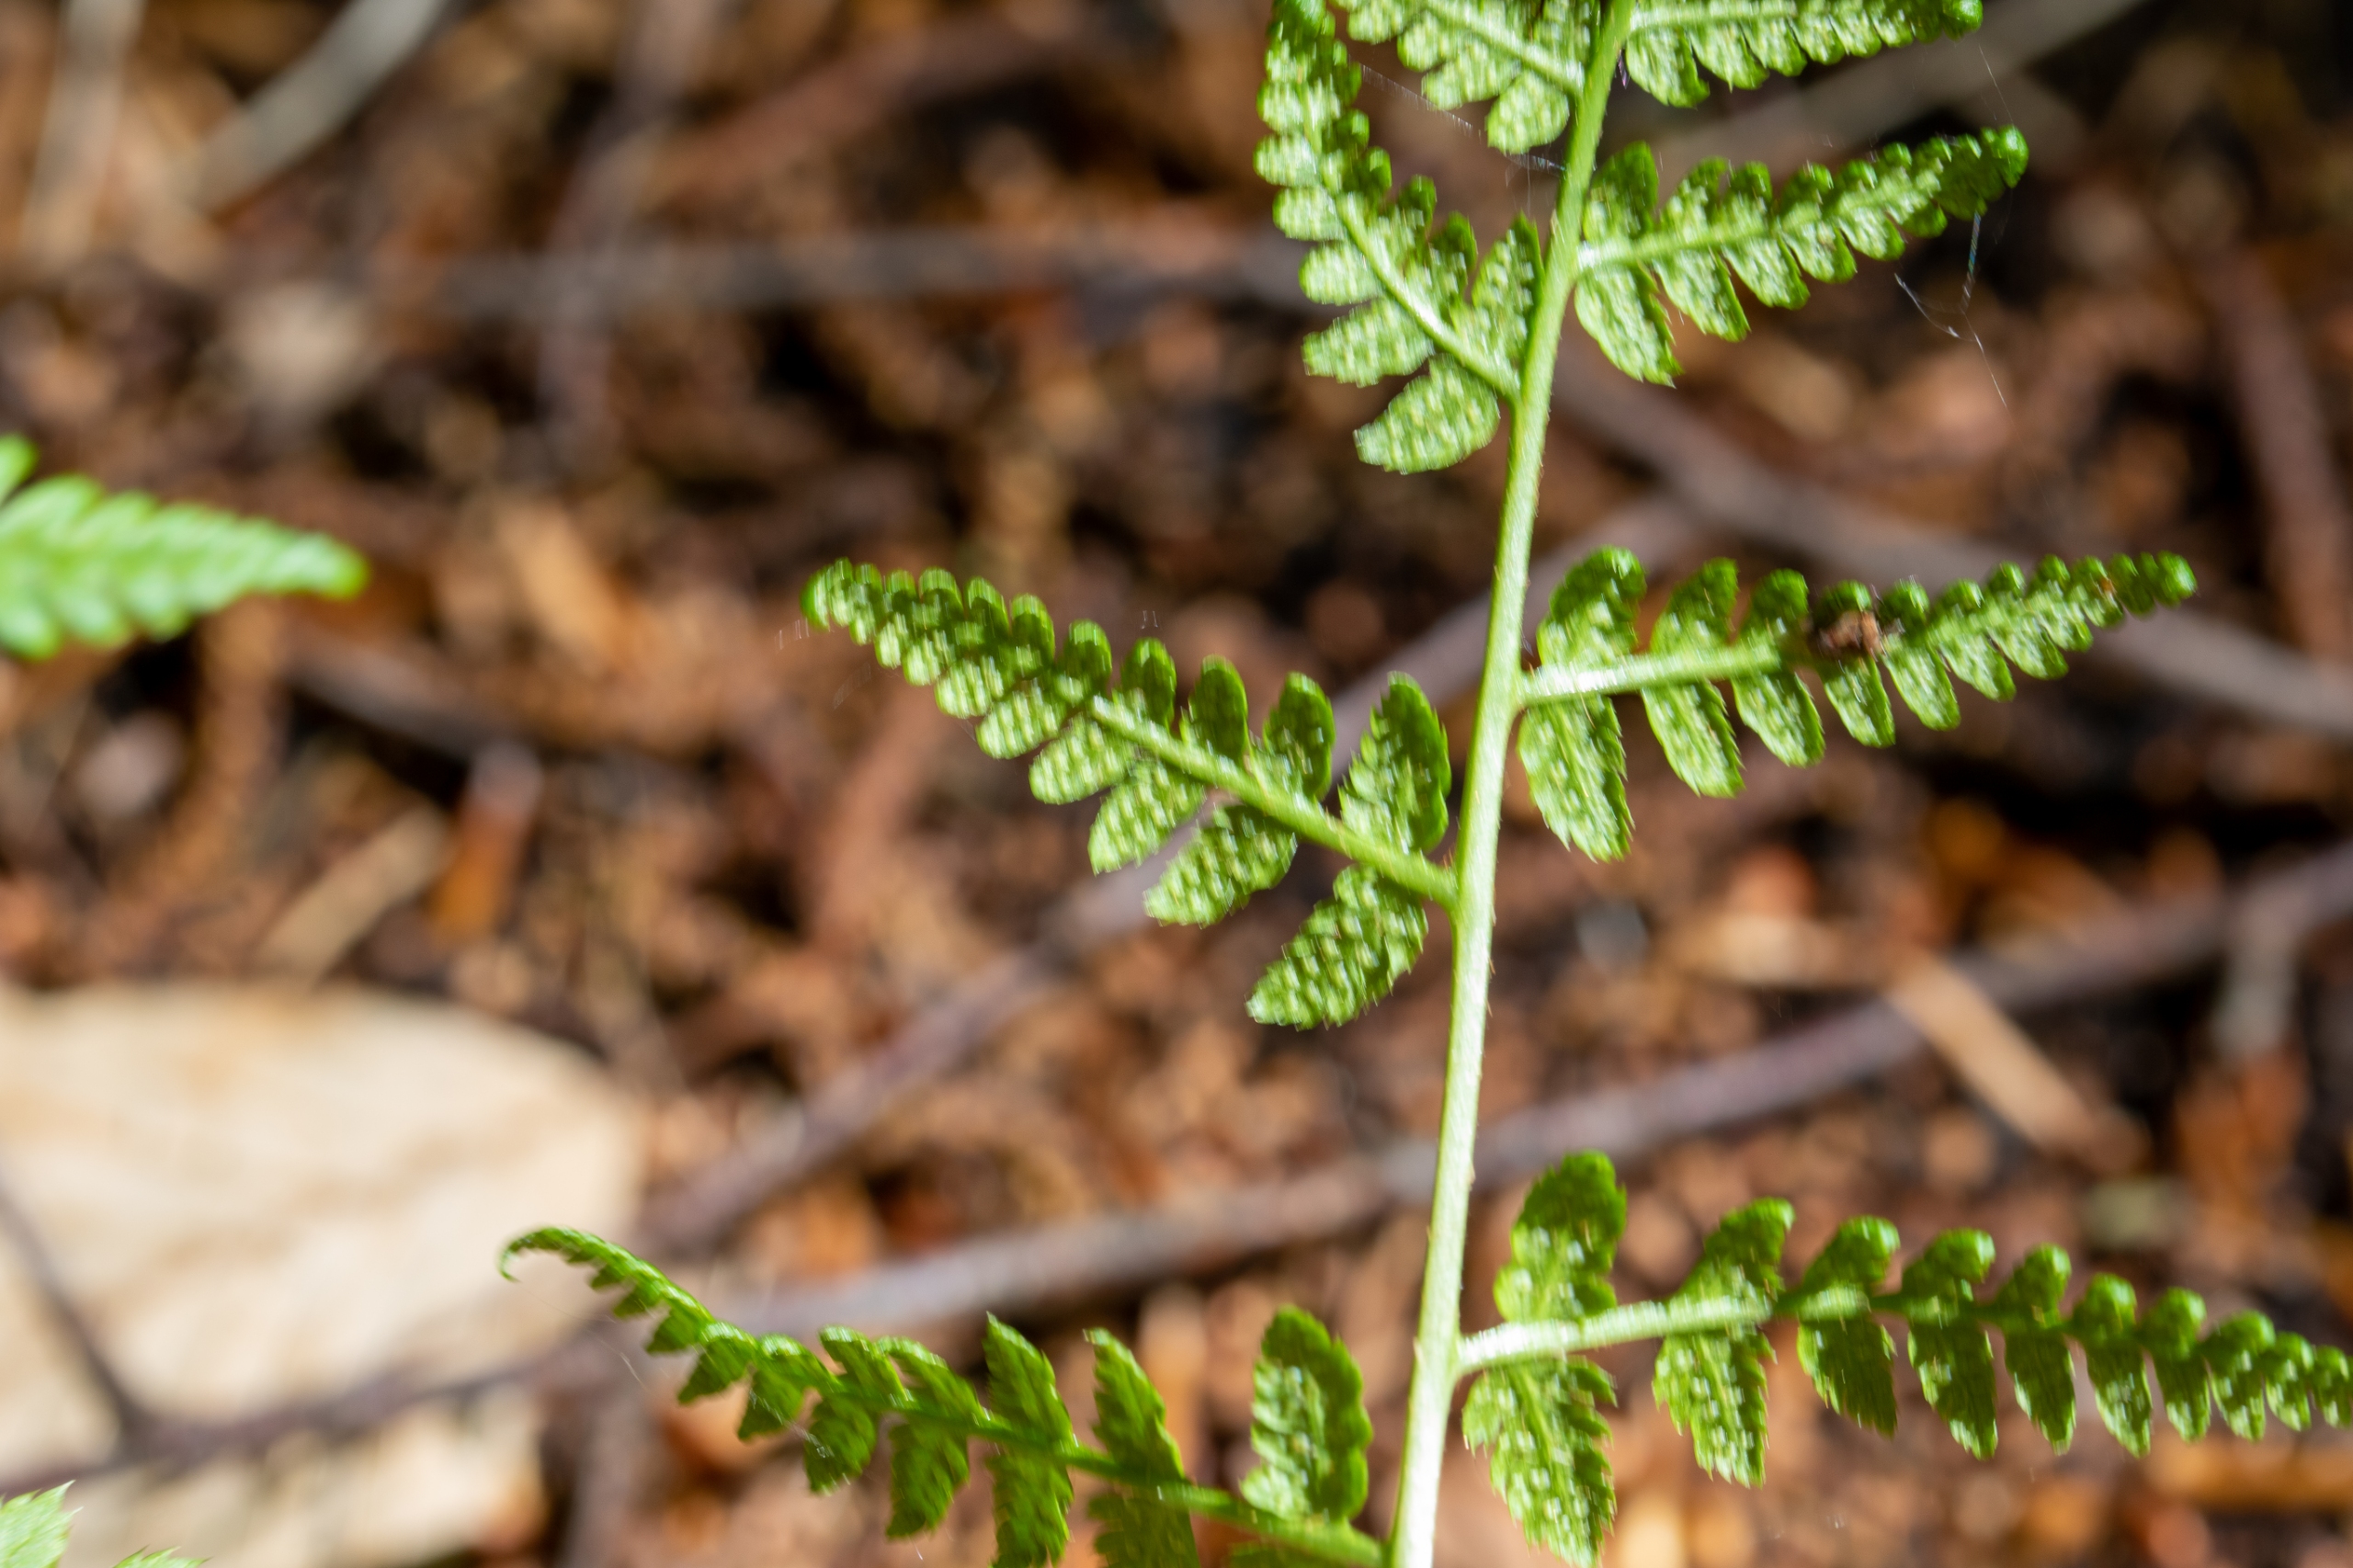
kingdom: Plantae
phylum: Tracheophyta
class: Polypodiopsida
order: Polypodiales
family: Dryopteridaceae
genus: Dryopteris
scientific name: Dryopteris carthusiana
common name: Smalbladet mangeløv
